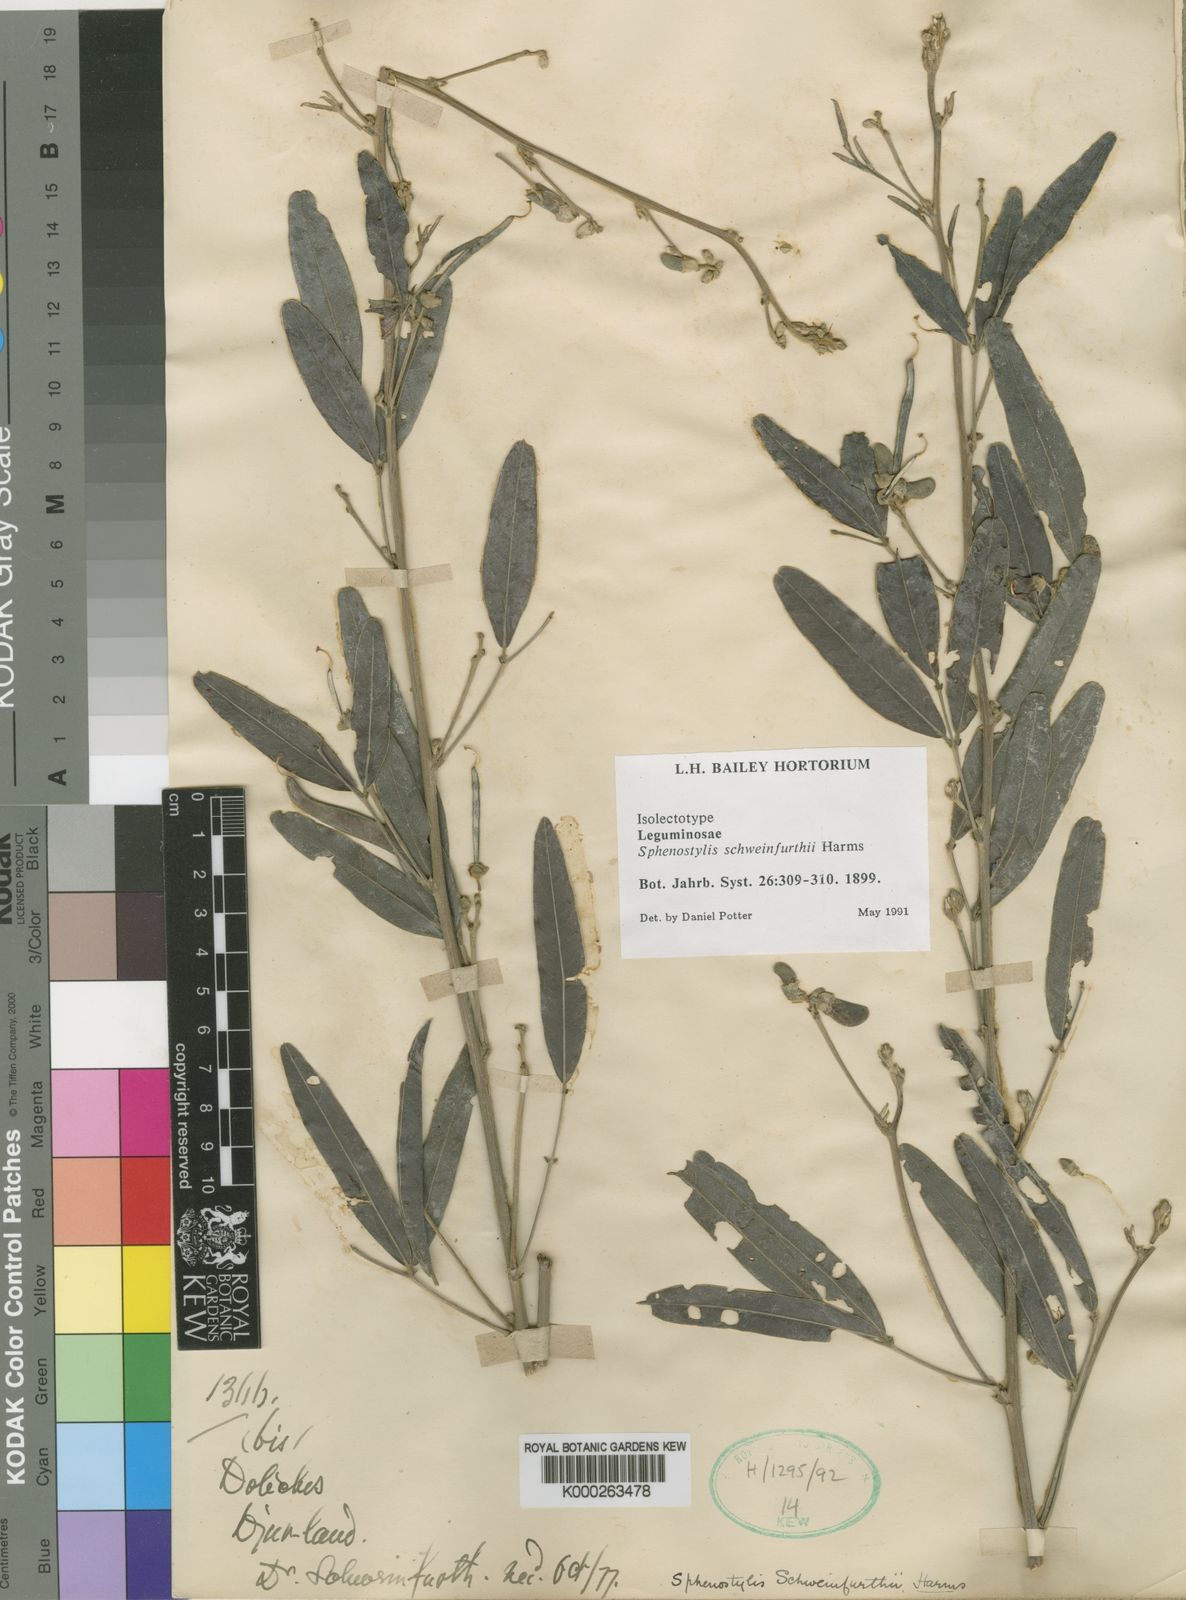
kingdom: Plantae
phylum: Tracheophyta
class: Magnoliopsida
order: Fabales
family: Fabaceae
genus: Sphenostylis
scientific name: Sphenostylis schweinfurthii
